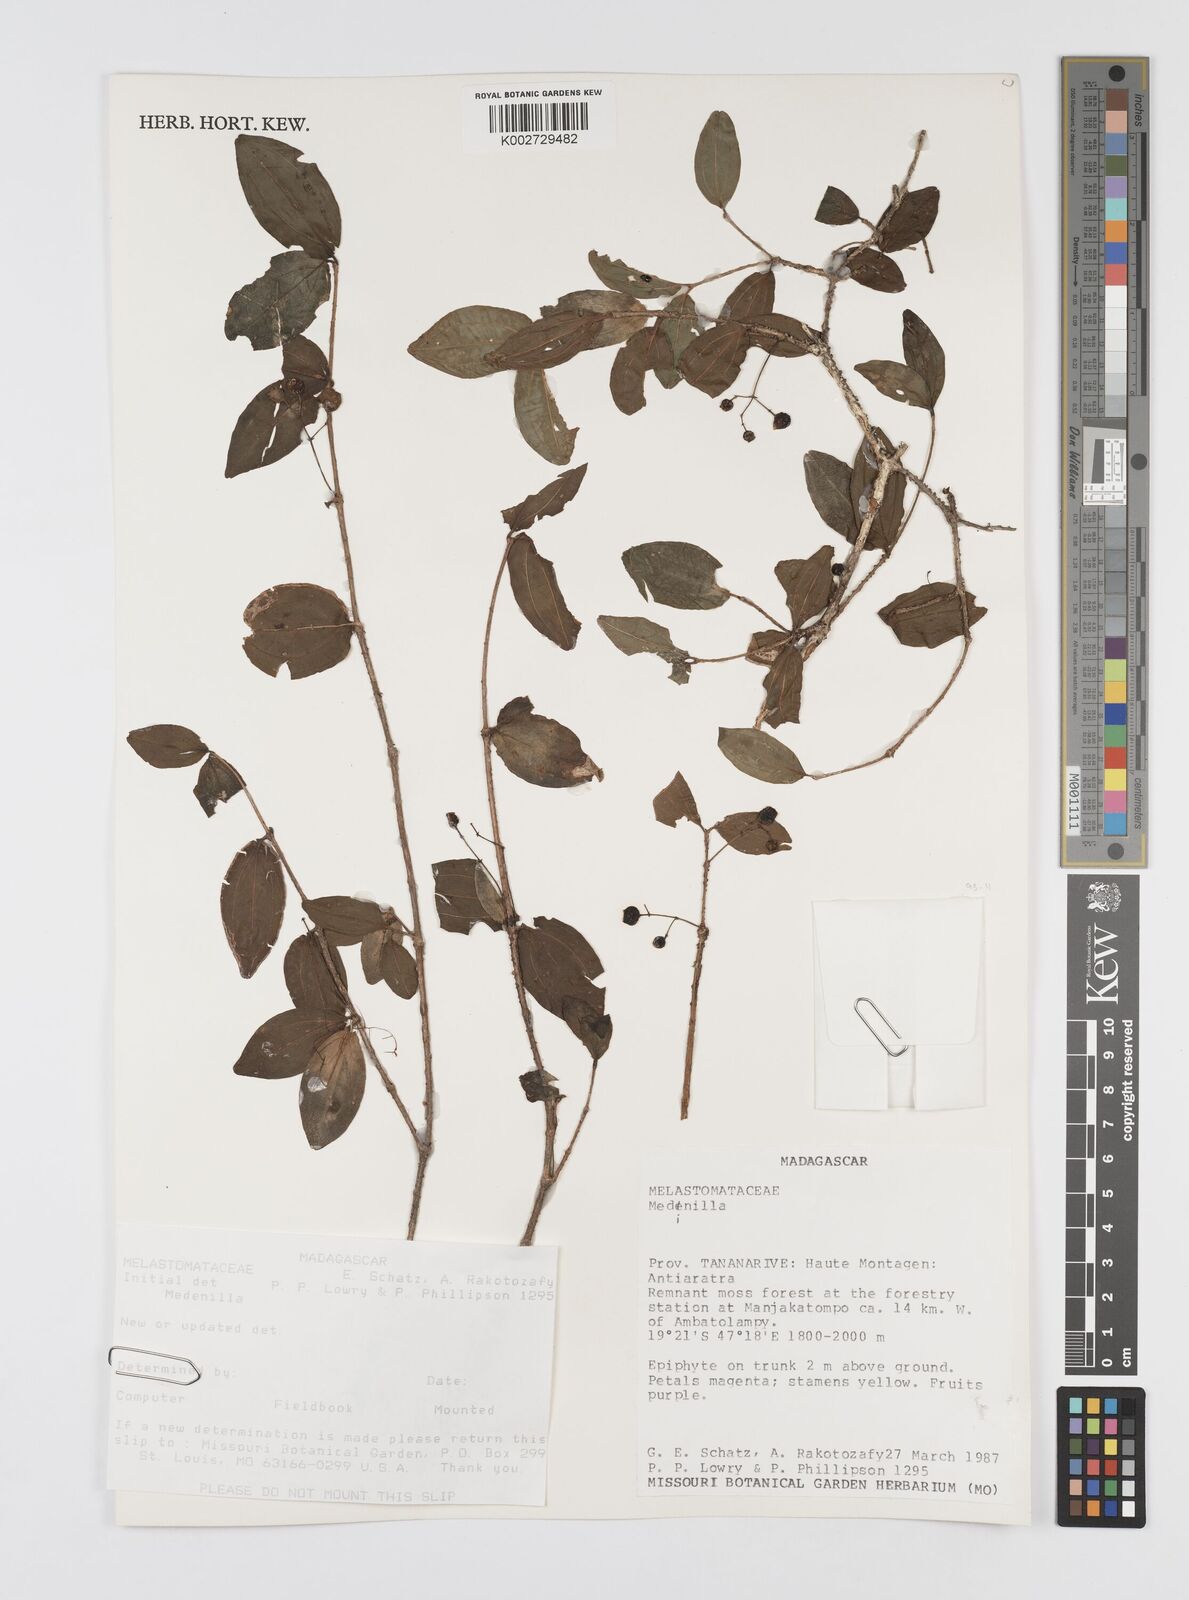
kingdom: Plantae
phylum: Tracheophyta
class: Magnoliopsida
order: Myrtales
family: Melastomataceae
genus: Medinilla
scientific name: Medinilla
